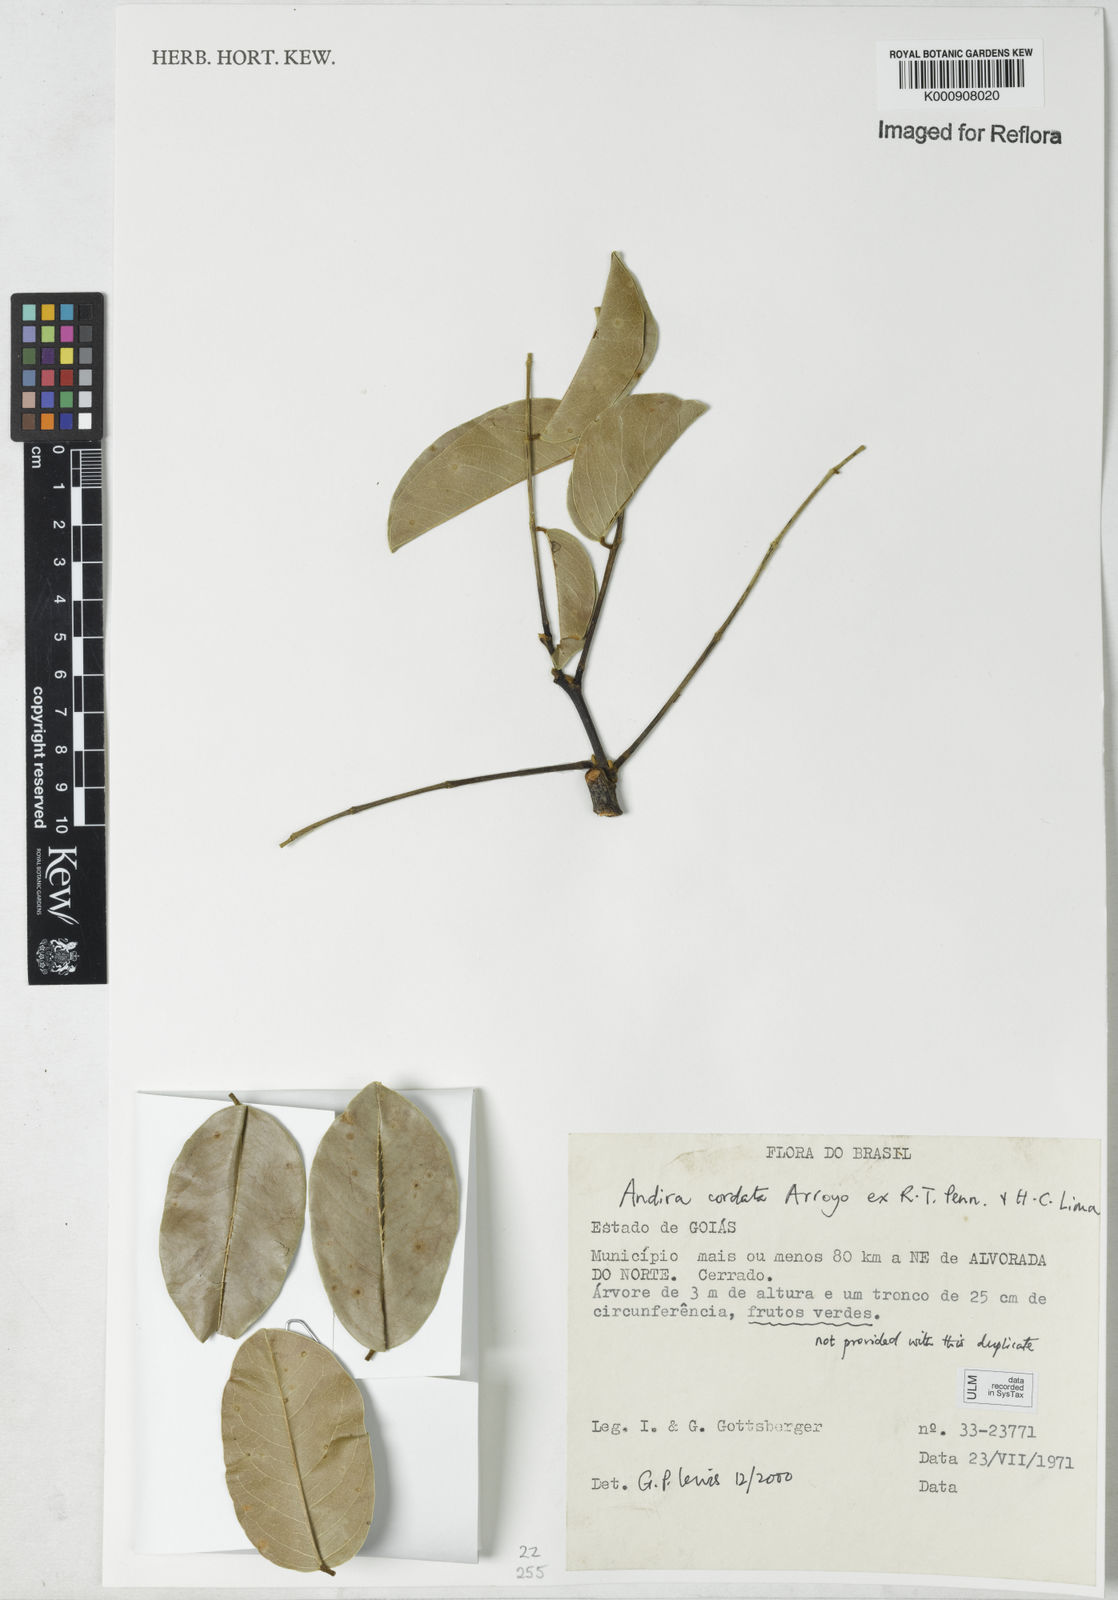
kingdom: Plantae
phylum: Tracheophyta
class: Magnoliopsida
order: Fabales
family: Fabaceae
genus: Andira
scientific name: Andira cordata
